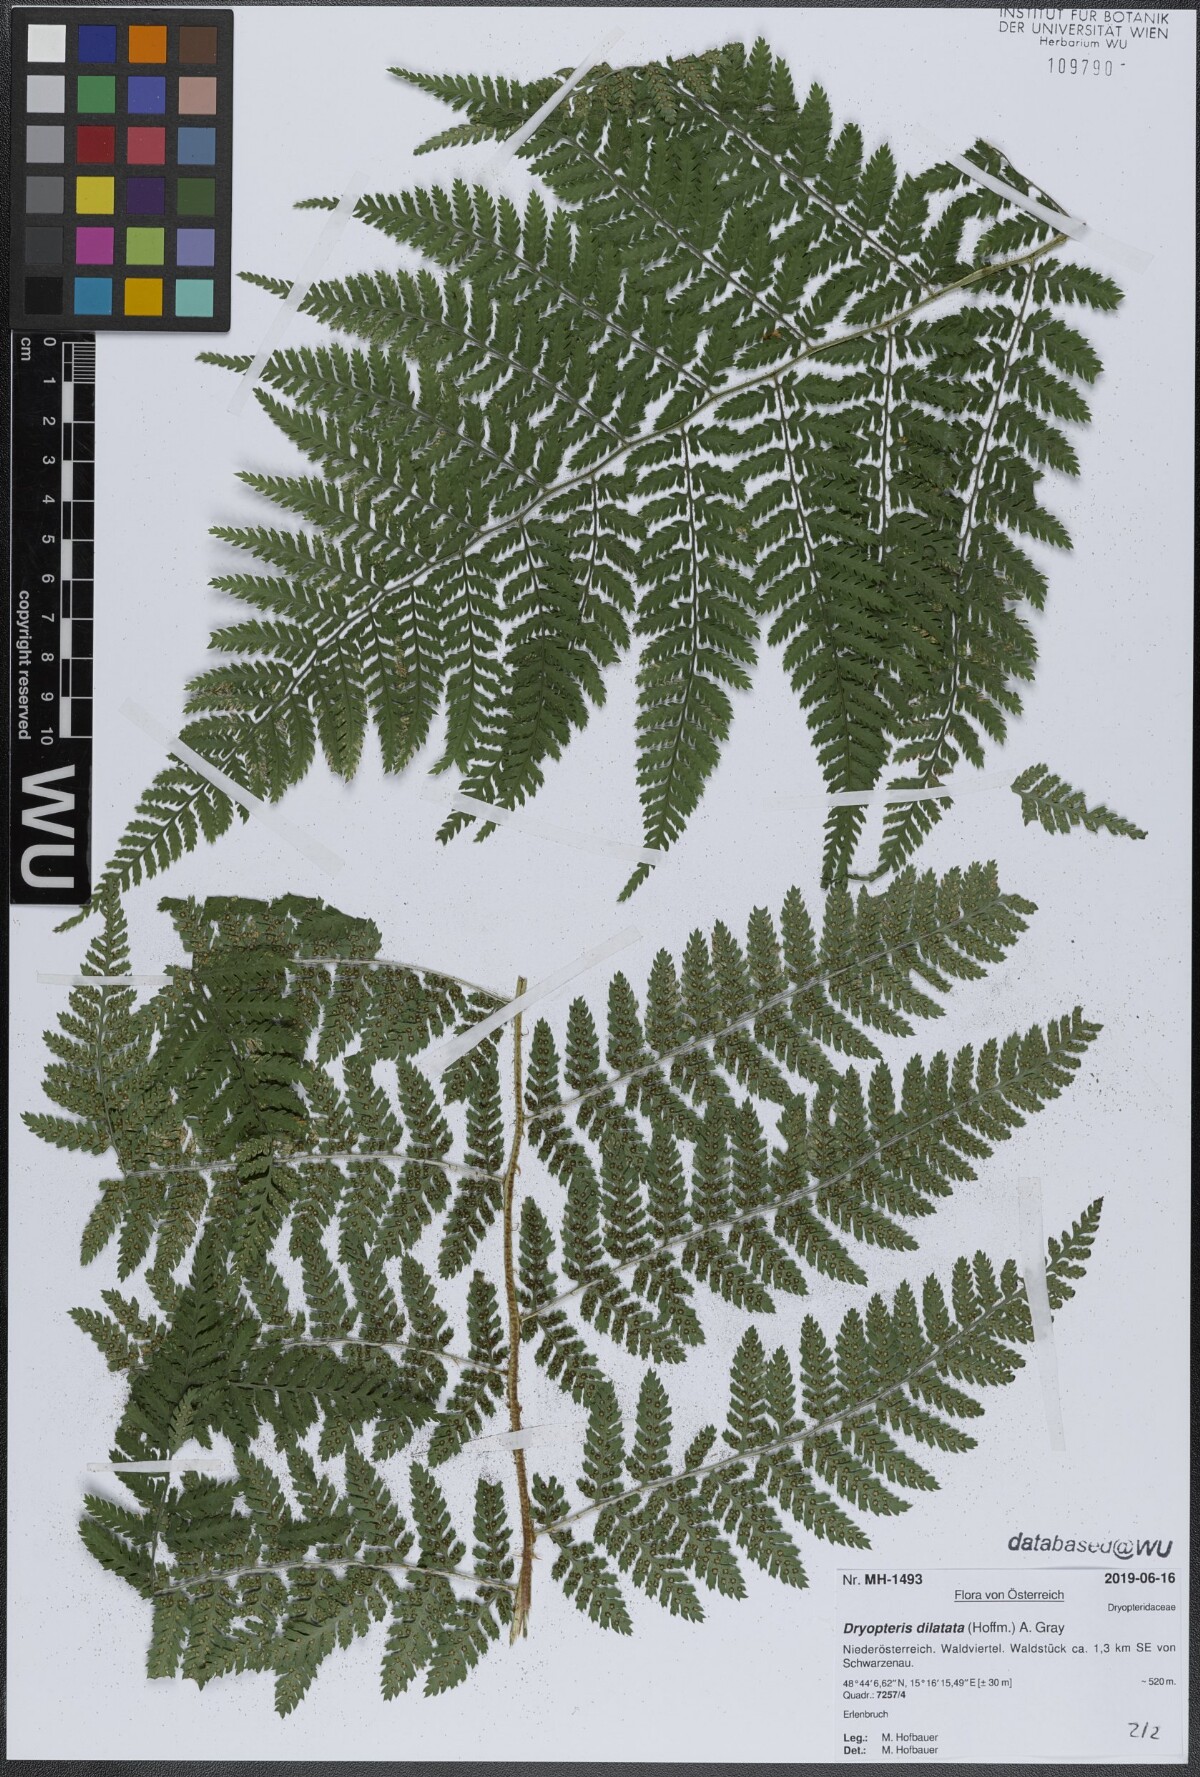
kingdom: Plantae
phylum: Tracheophyta
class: Polypodiopsida
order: Polypodiales
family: Dryopteridaceae
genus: Dryopteris
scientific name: Dryopteris dilatata
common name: Broad buckler-fern
